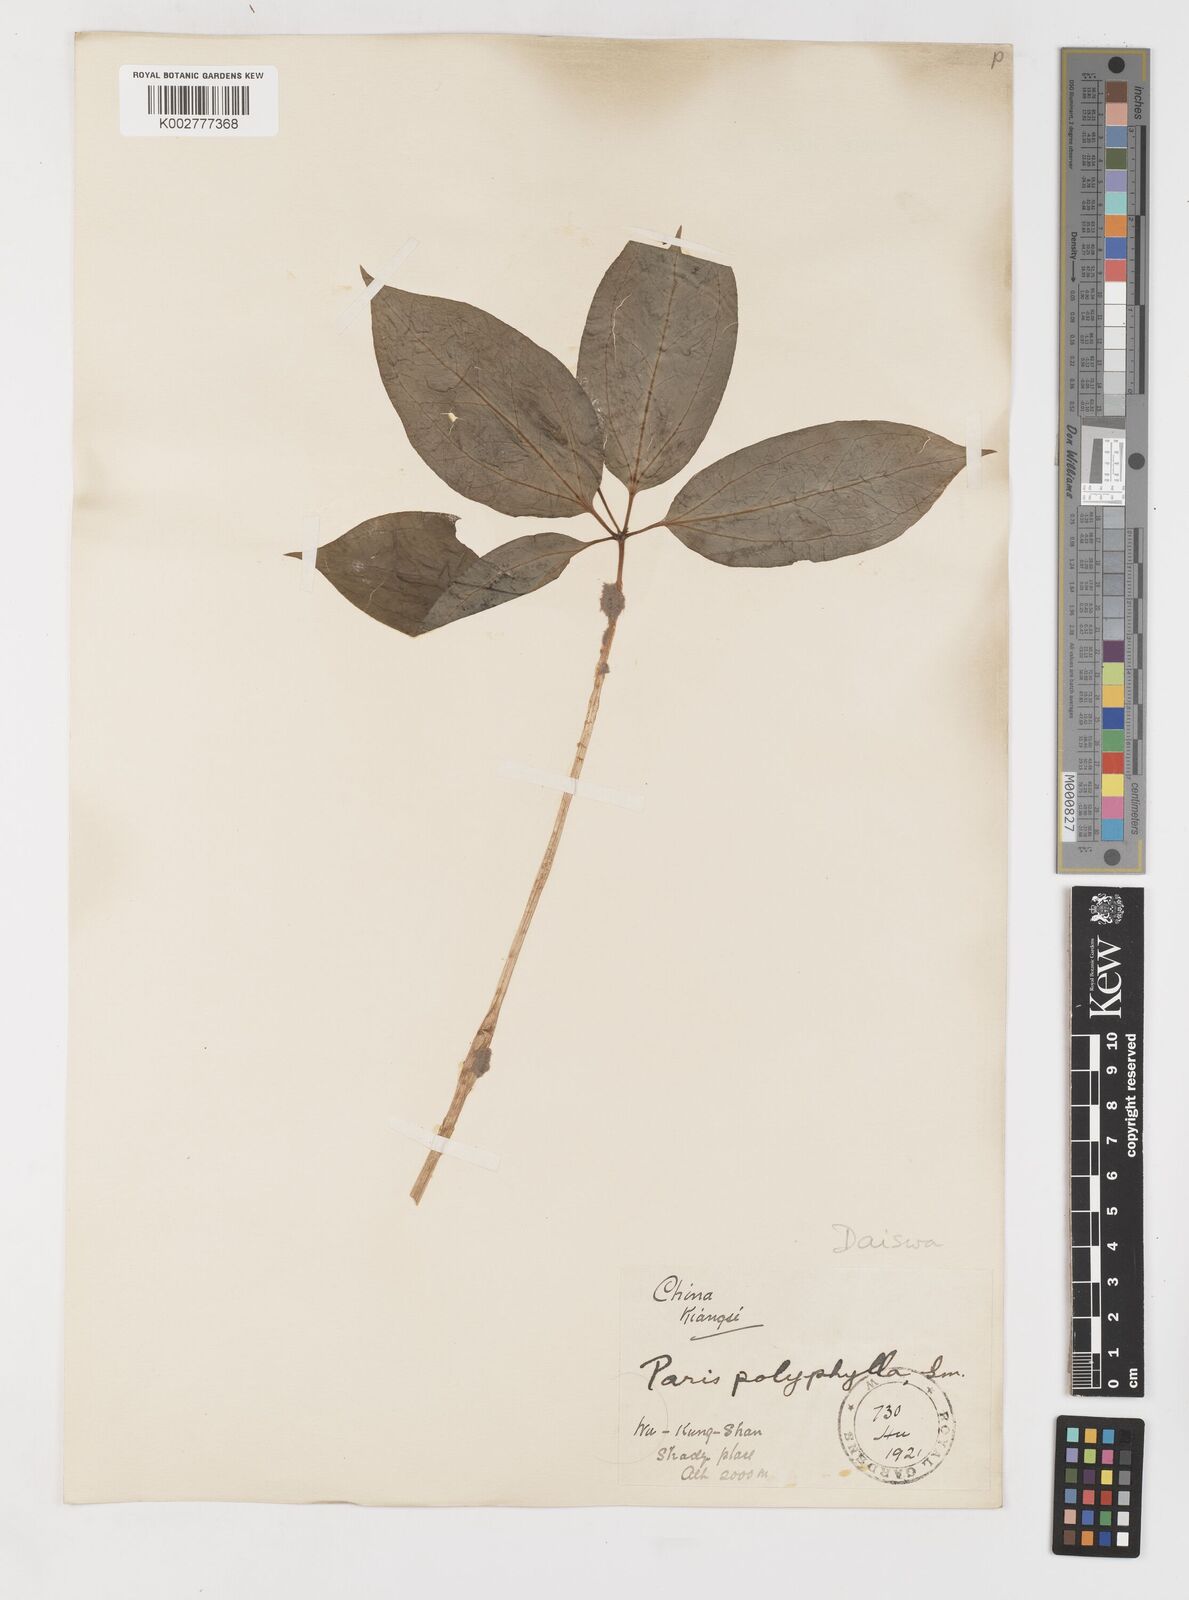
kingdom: Plantae
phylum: Tracheophyta
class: Liliopsida
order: Liliales
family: Melanthiaceae
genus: Paris
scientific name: Paris
